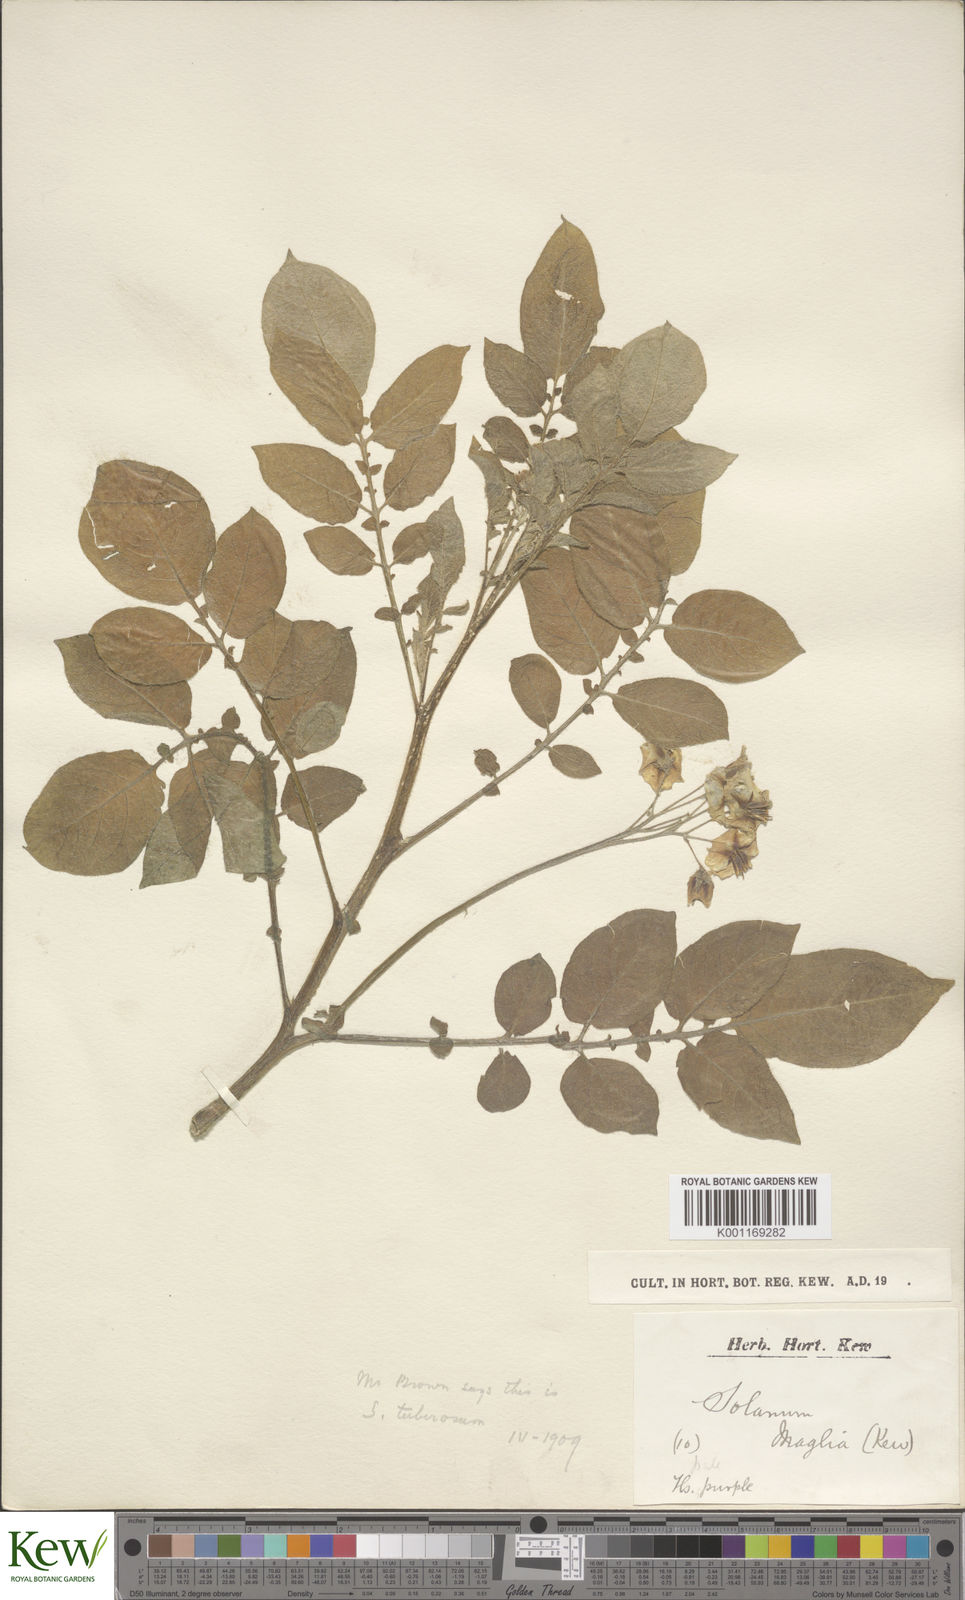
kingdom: Plantae
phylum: Tracheophyta
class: Magnoliopsida
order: Solanales
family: Solanaceae
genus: Solanum
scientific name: Solanum maglia
